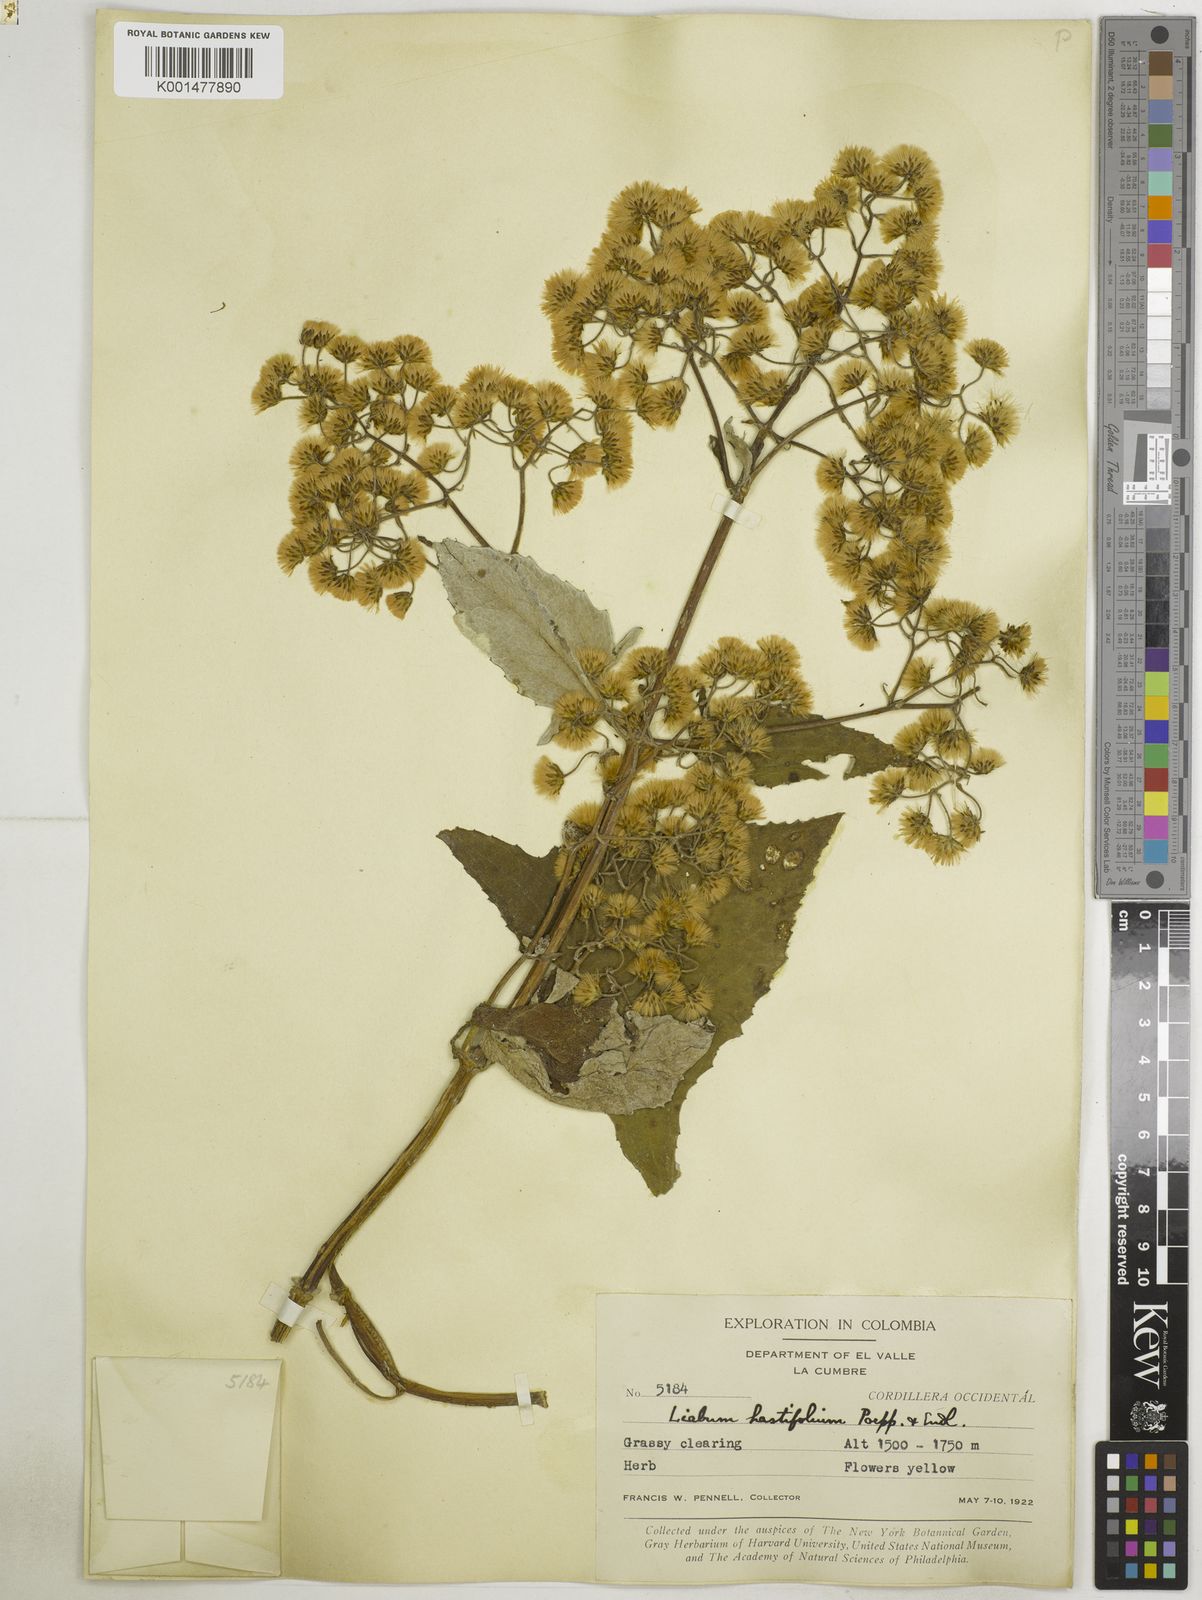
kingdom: Plantae
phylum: Tracheophyta
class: Magnoliopsida
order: Asterales
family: Asteraceae
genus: Munnozia
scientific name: Munnozia hastifolia
